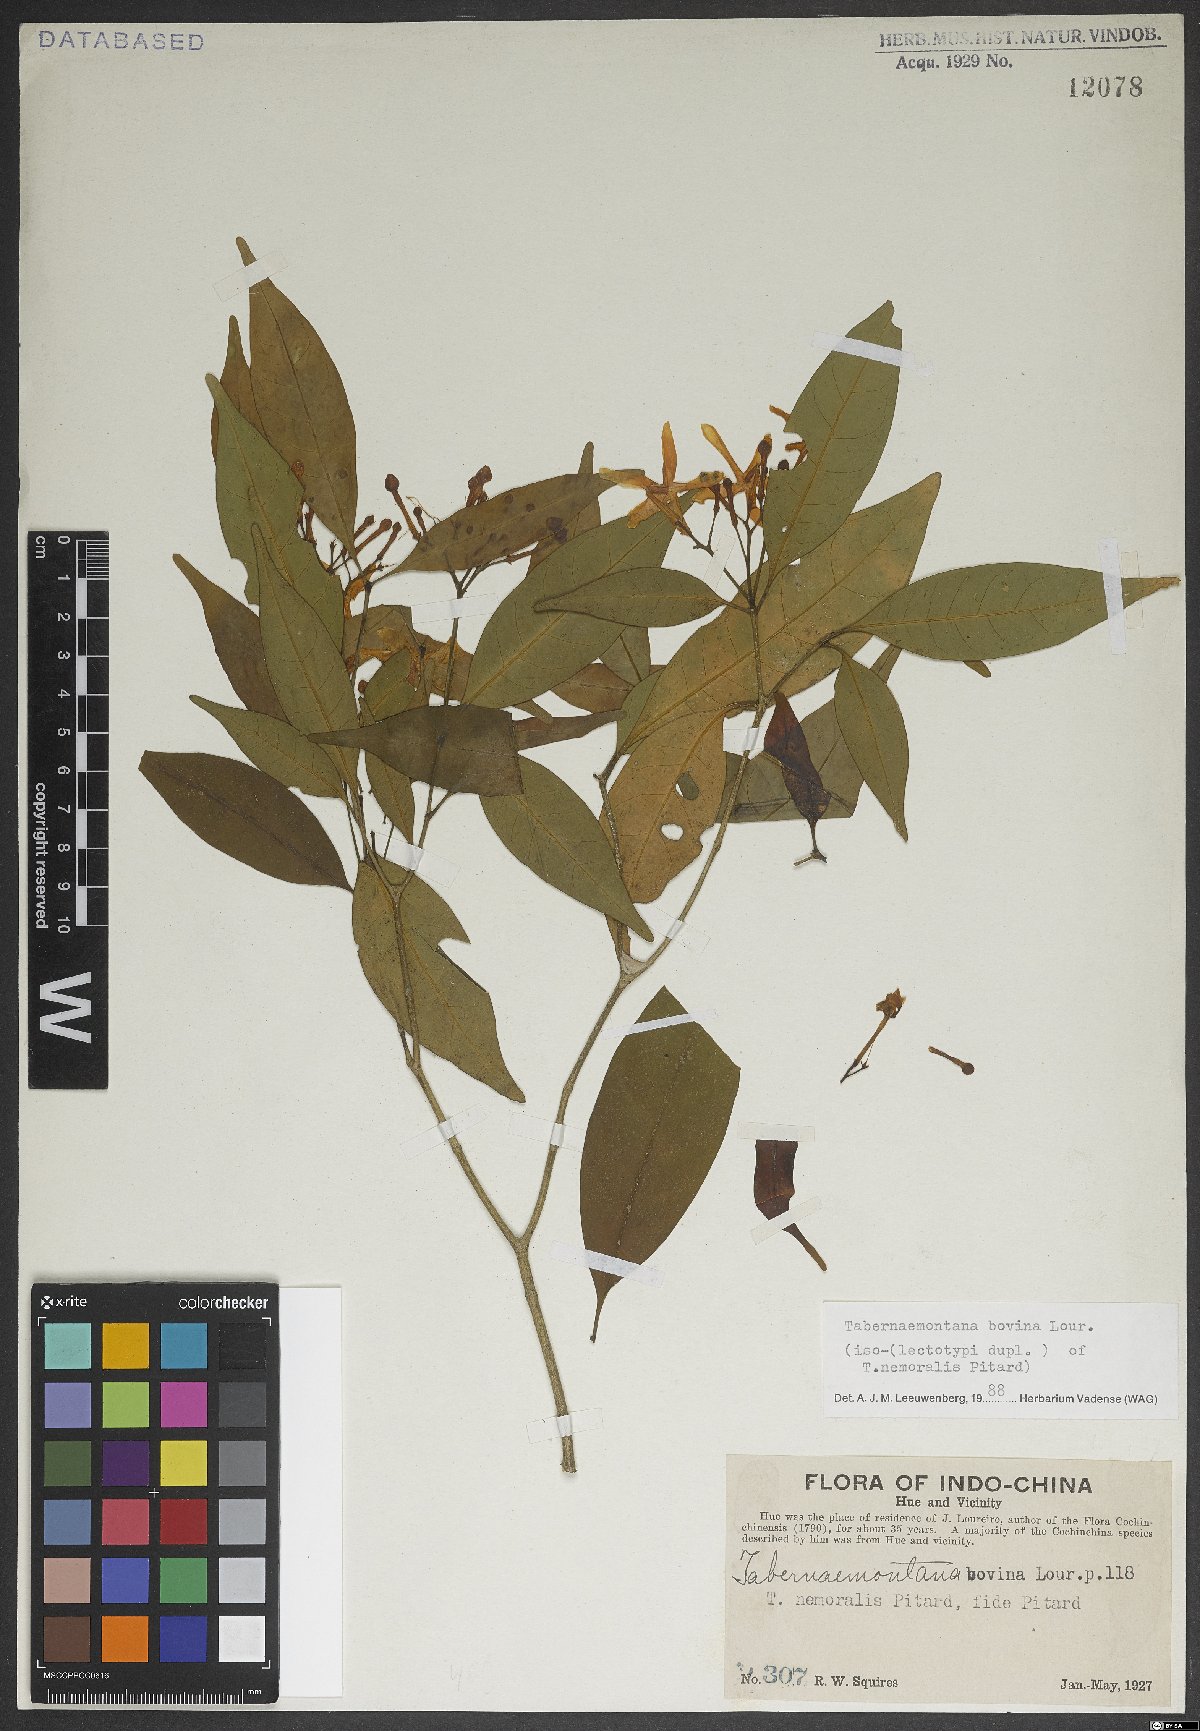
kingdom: Plantae
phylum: Tracheophyta
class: Magnoliopsida
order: Gentianales
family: Apocynaceae
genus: Tabernaemontana
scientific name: Tabernaemontana bovina
